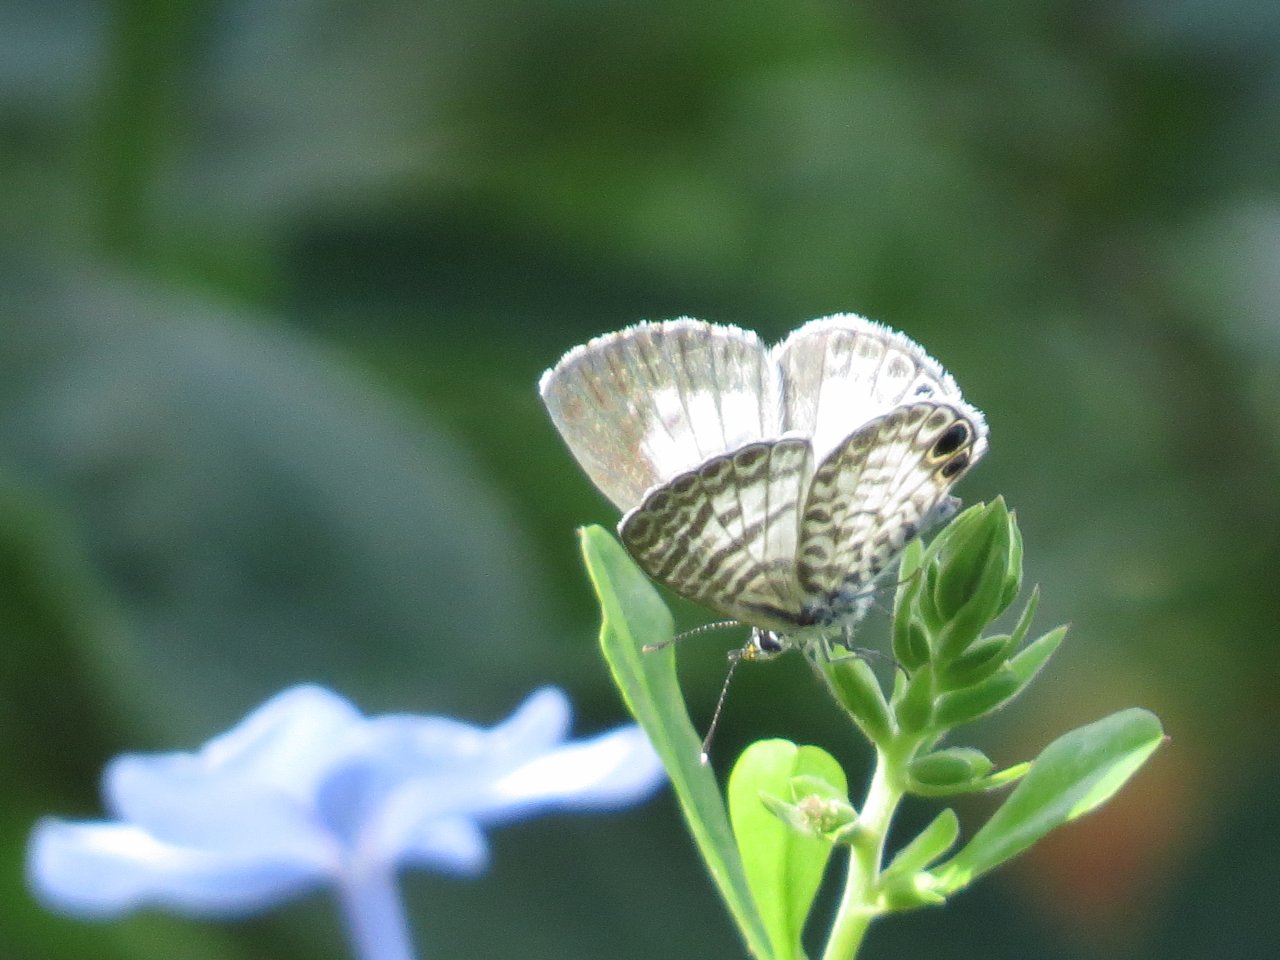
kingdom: Animalia
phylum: Arthropoda
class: Insecta
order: Lepidoptera
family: Lycaenidae
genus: Leptotes
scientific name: Leptotes cassius
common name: Cassius Blue
